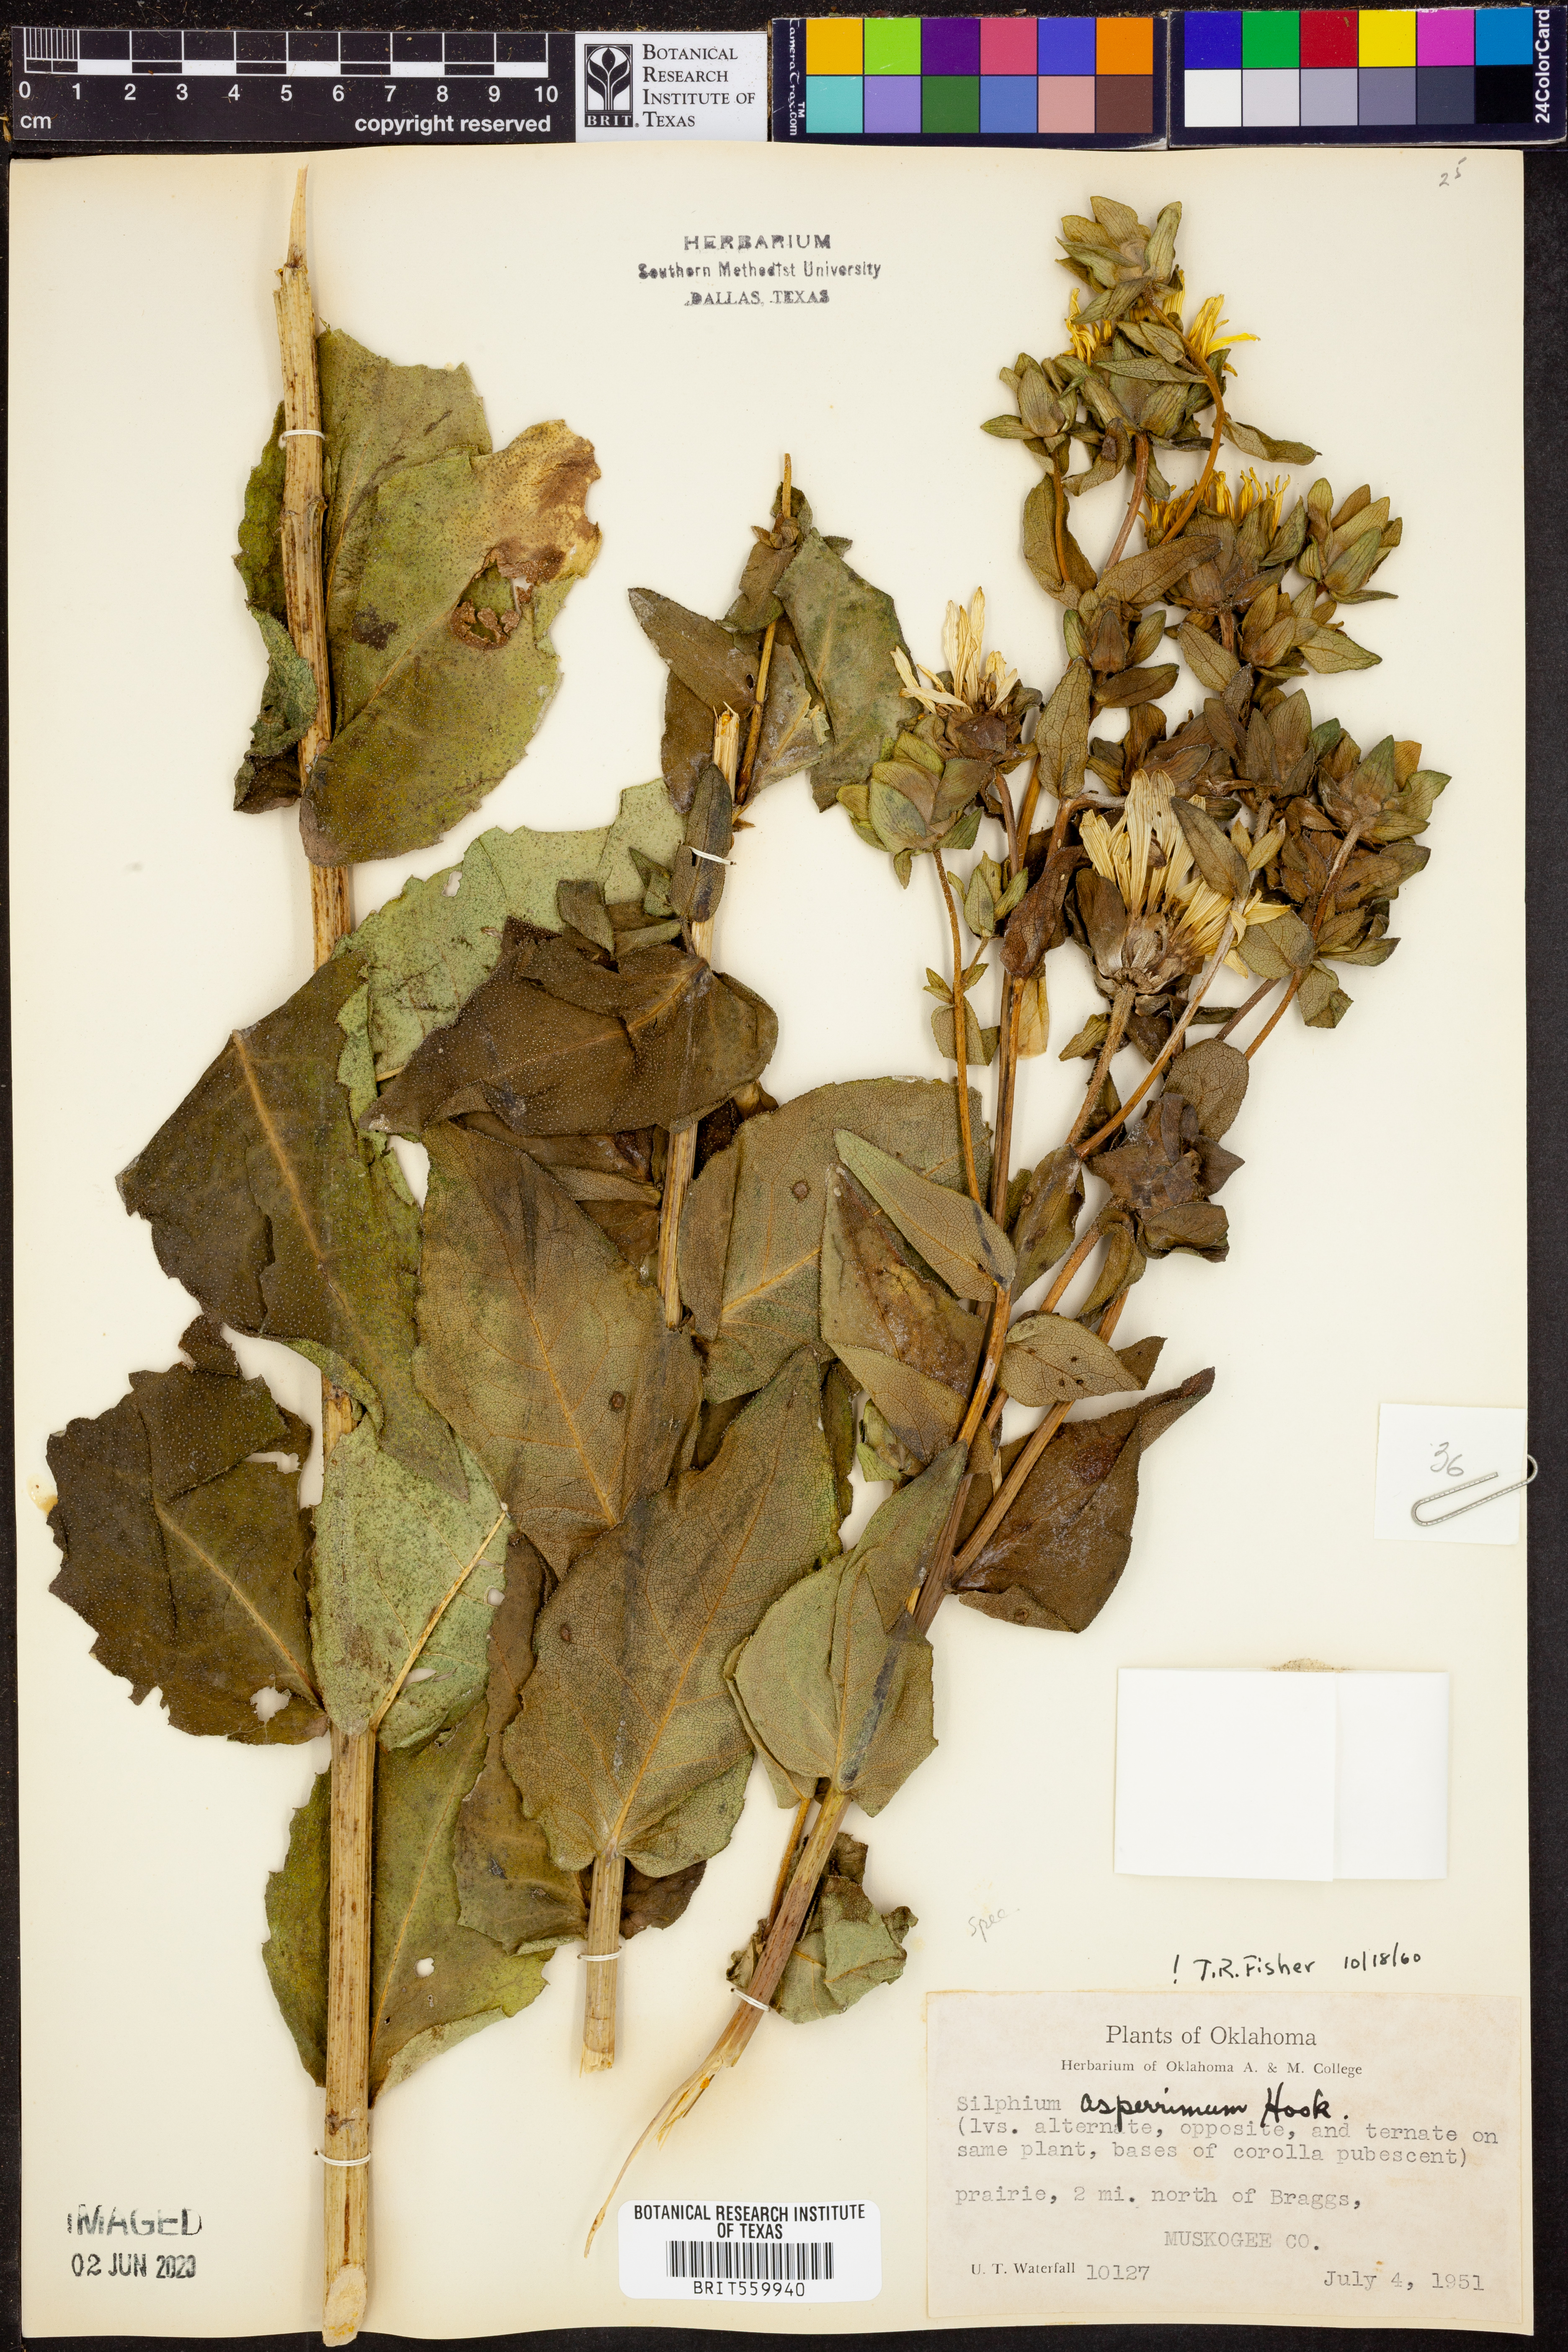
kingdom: Plantae
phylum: Tracheophyta
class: Magnoliopsida
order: Asterales
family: Asteraceae
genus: Silphium
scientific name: Silphium asperrimum
